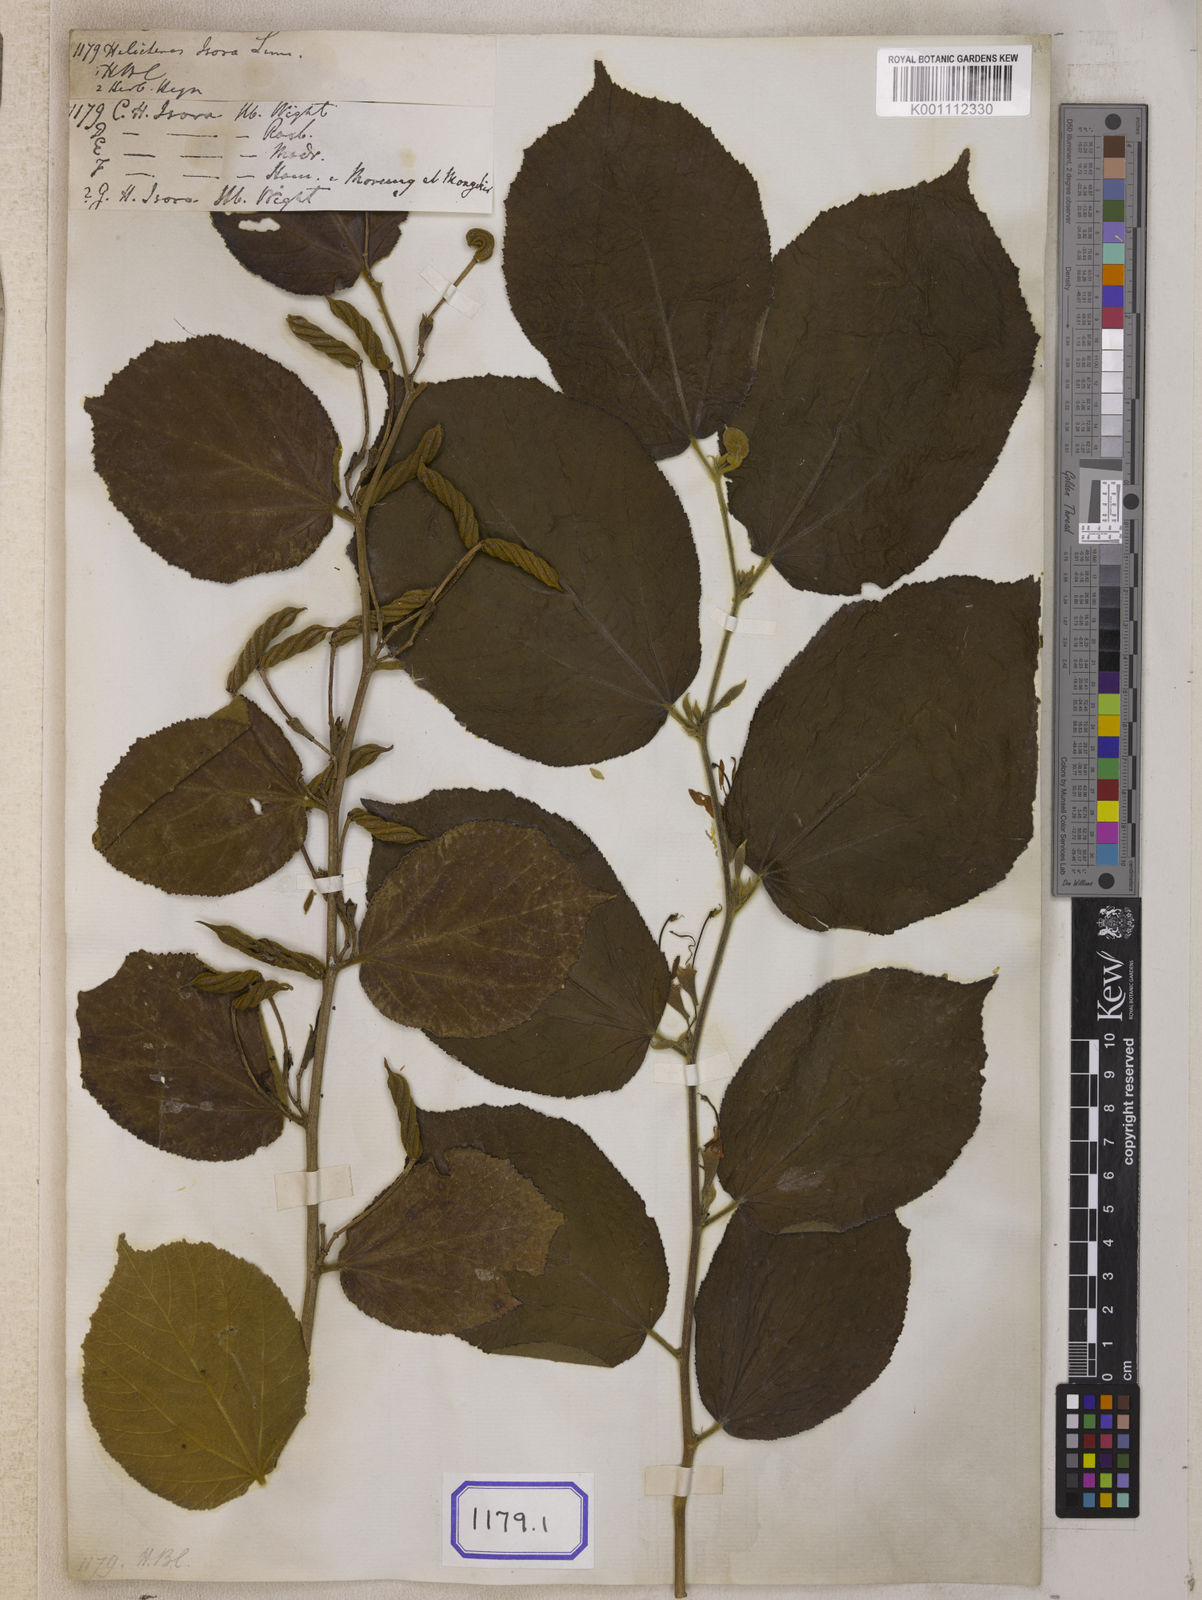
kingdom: Plantae
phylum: Tracheophyta
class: Magnoliopsida
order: Malvales
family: Malvaceae
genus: Helicteres
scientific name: Helicteres isora
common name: East indian screwtree
